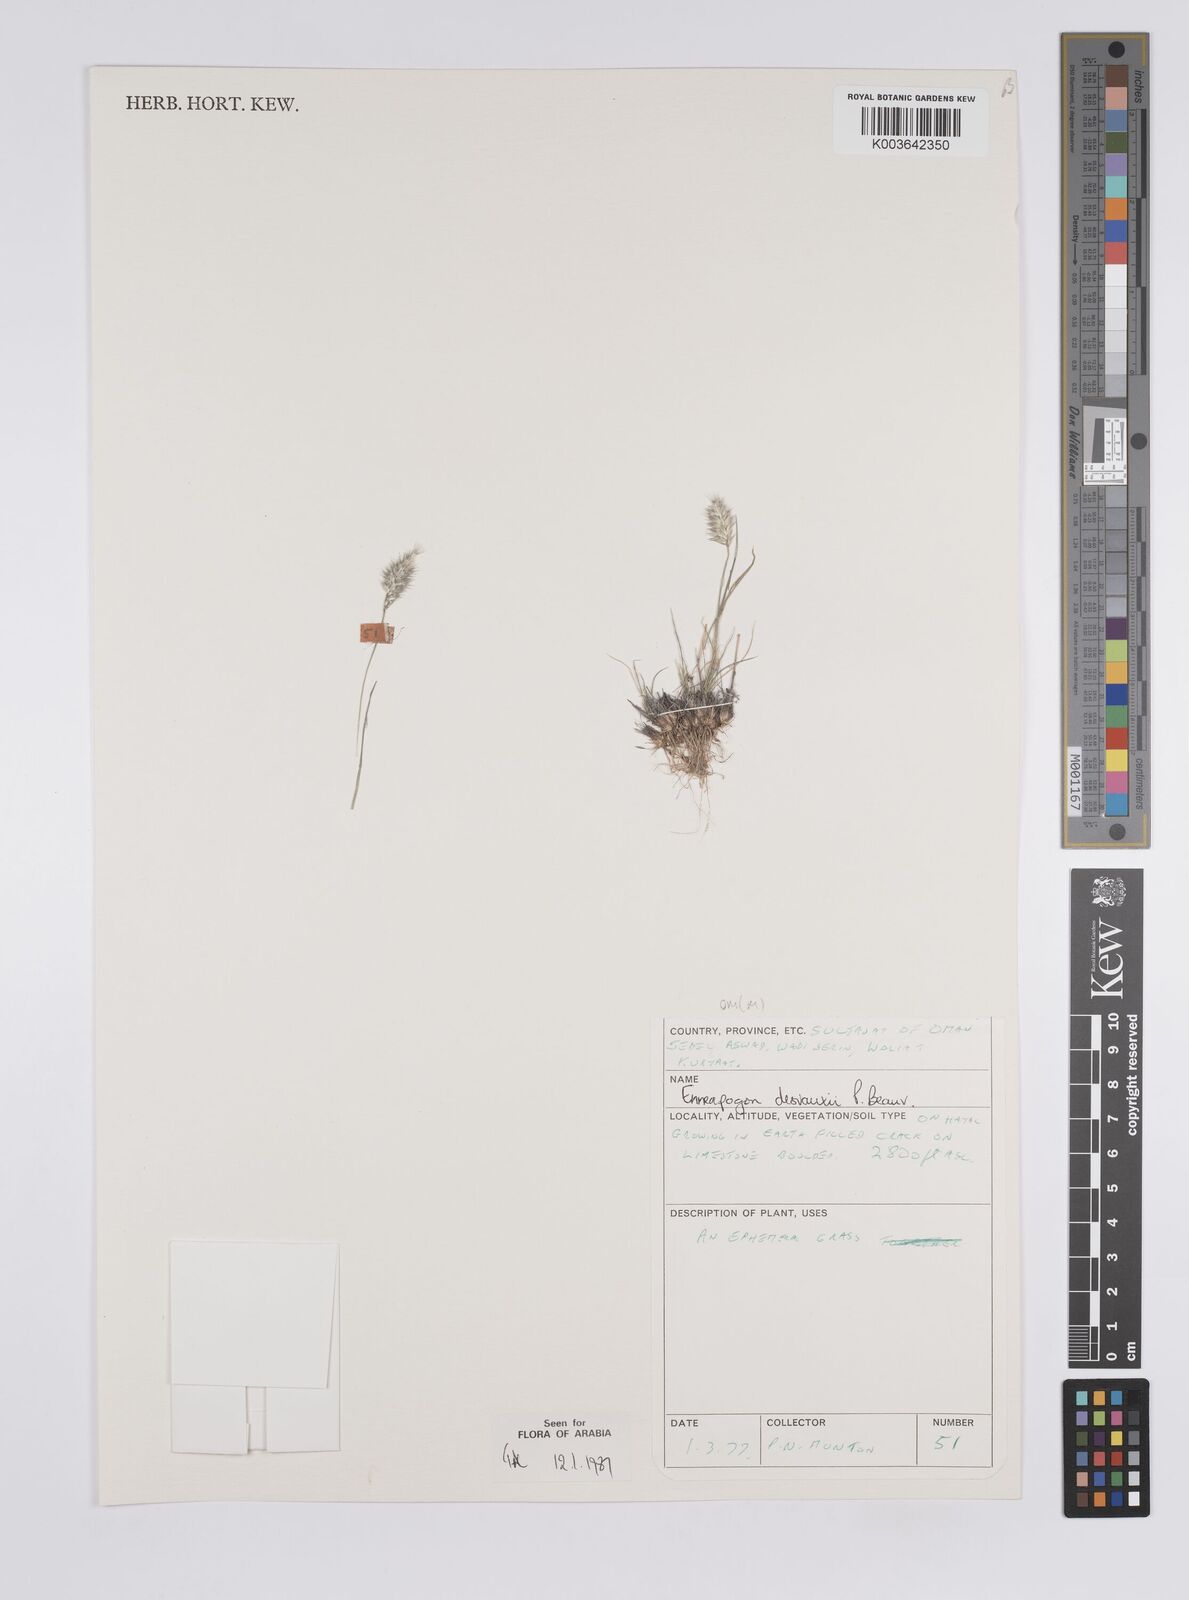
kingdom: Plantae
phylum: Tracheophyta
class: Liliopsida
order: Poales
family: Poaceae
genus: Enneapogon
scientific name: Enneapogon desvauxii
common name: Feather pappus grass
